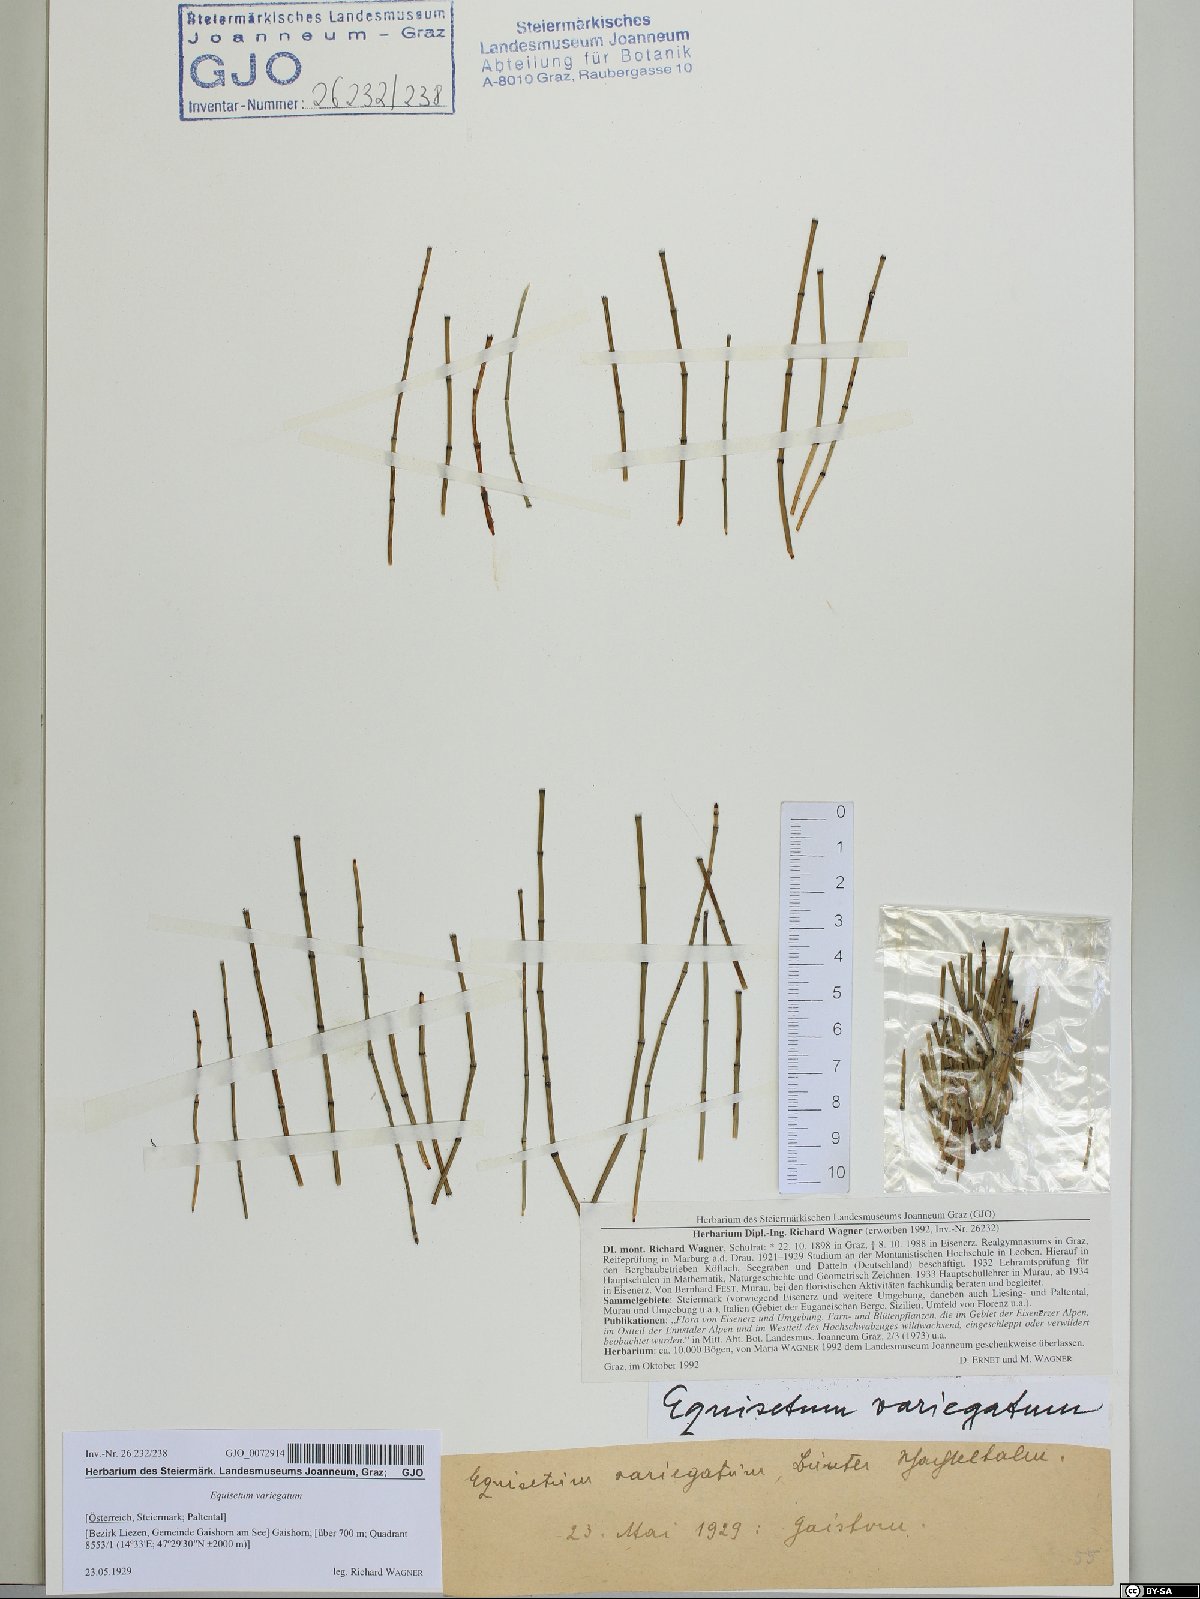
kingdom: Plantae
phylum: Tracheophyta
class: Polypodiopsida
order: Equisetales
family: Equisetaceae
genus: Equisetum
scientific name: Equisetum variegatum
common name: Variegated horsetail
